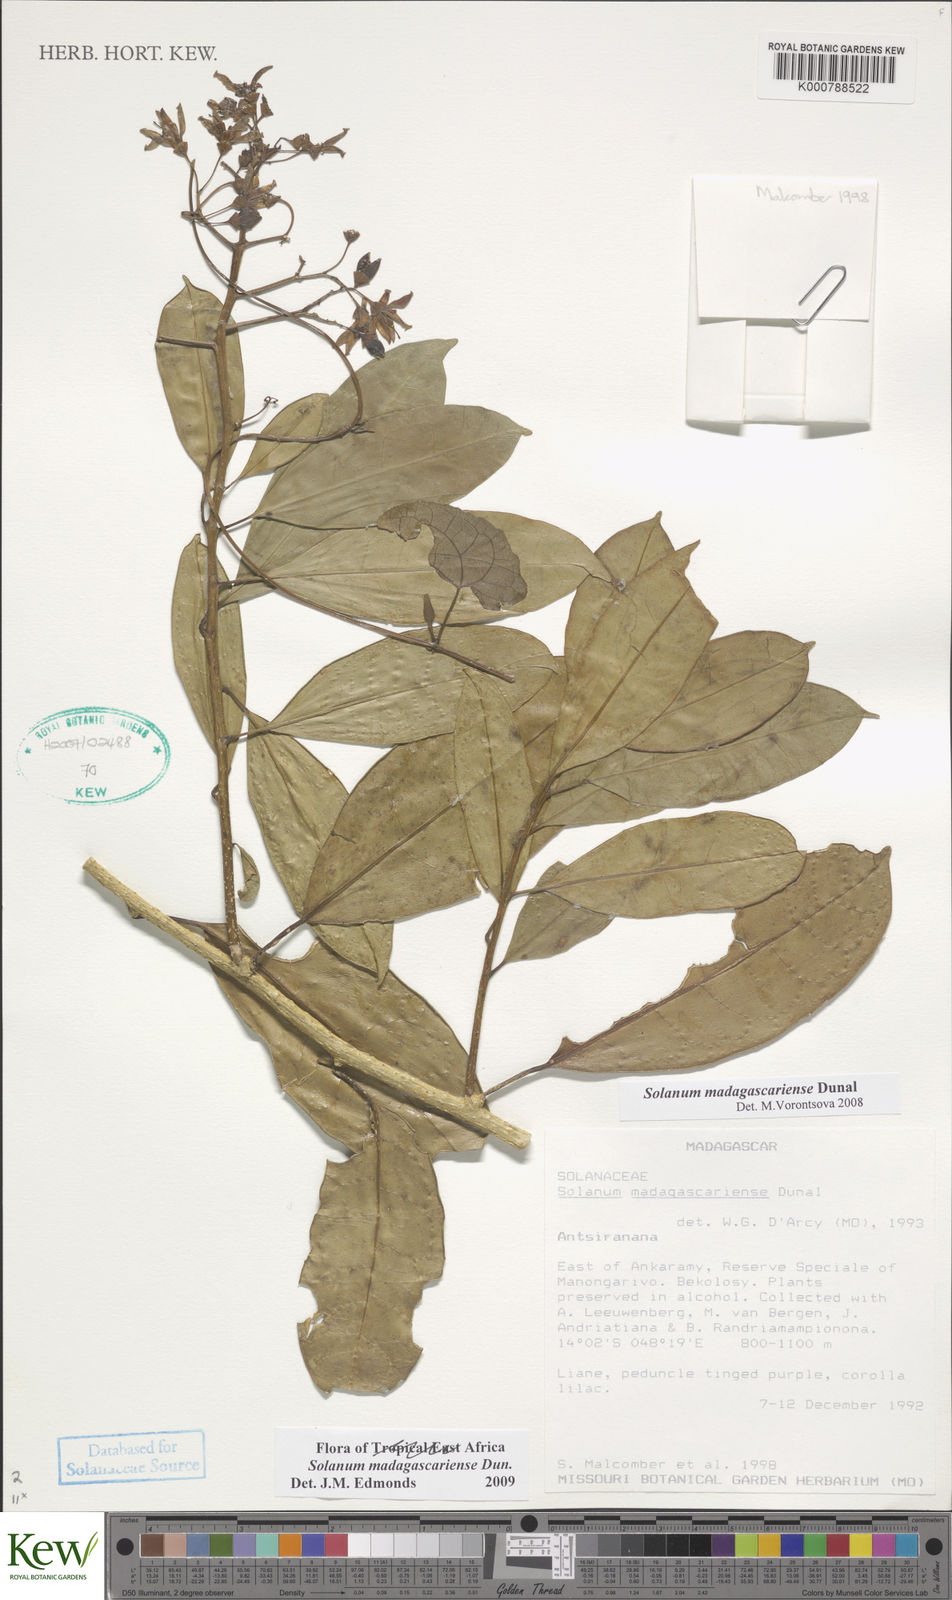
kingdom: Plantae
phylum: Tracheophyta
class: Magnoliopsida
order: Solanales
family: Solanaceae
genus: Solanum
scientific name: Solanum madagascariense
